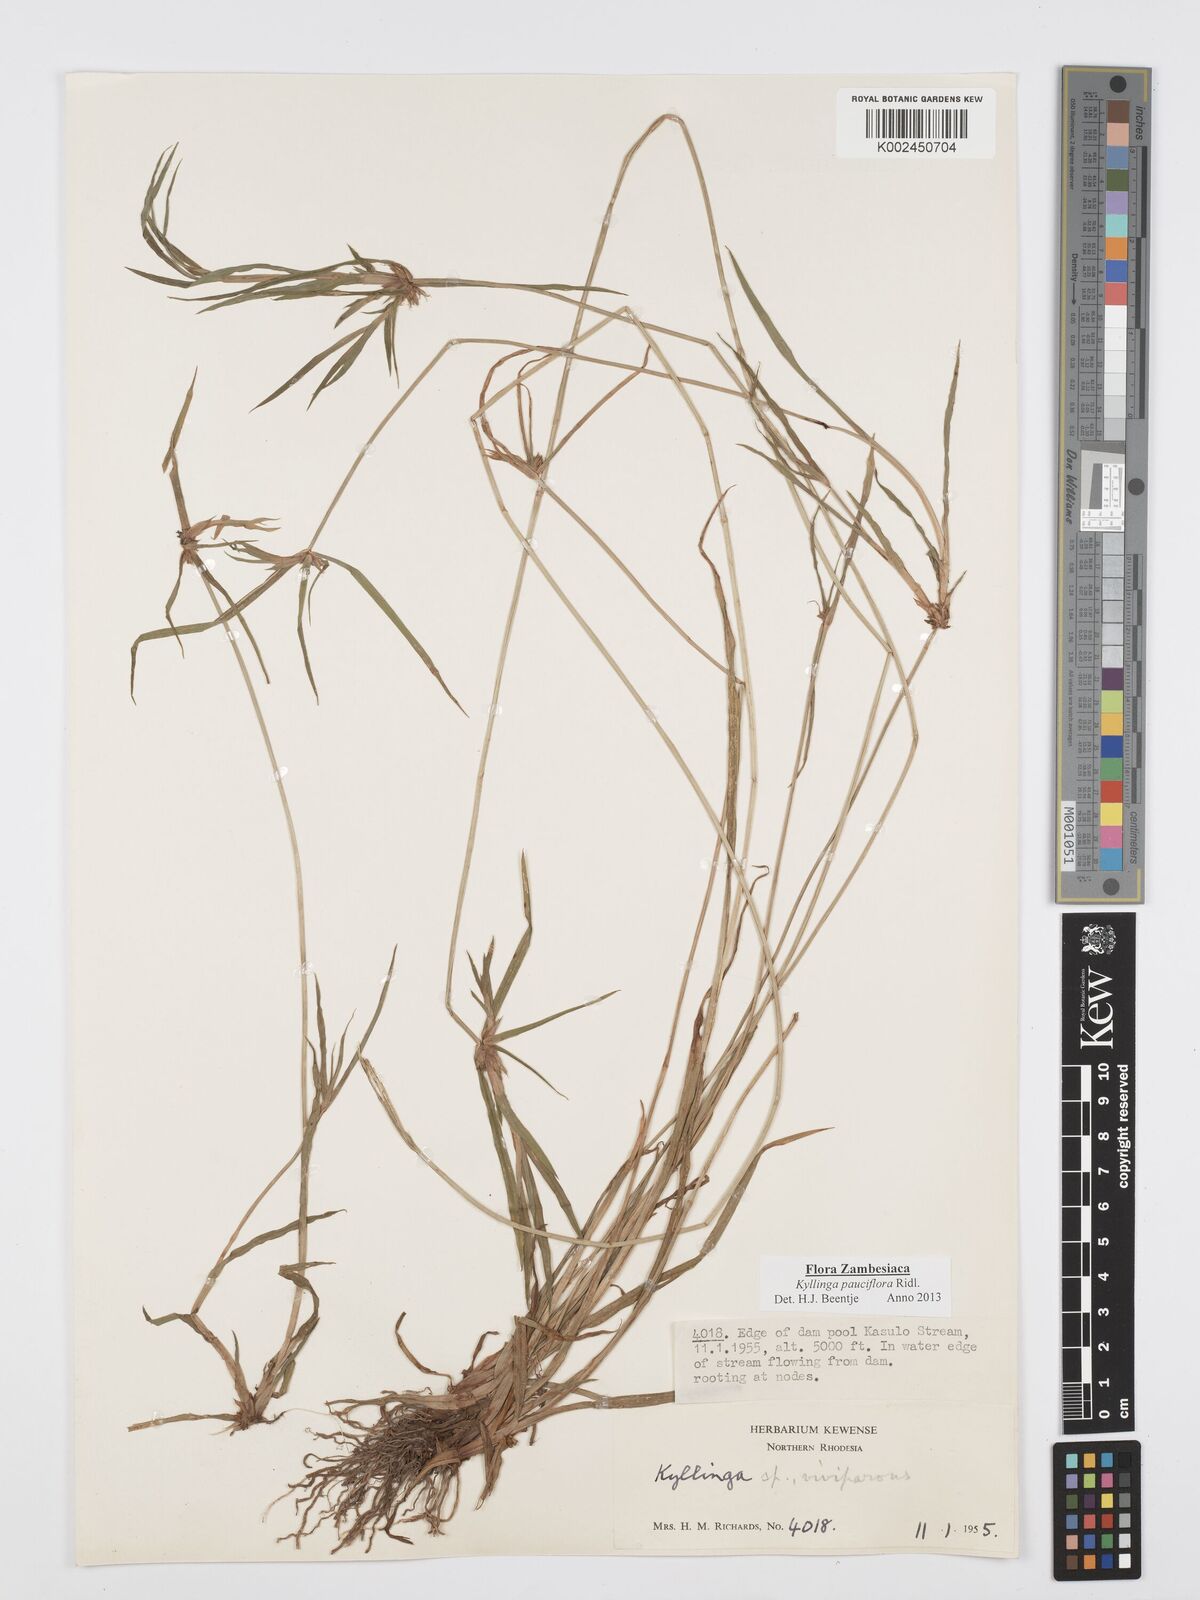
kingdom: Plantae
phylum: Tracheophyta
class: Liliopsida
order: Poales
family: Cyperaceae
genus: Cyperus
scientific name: Cyperus
